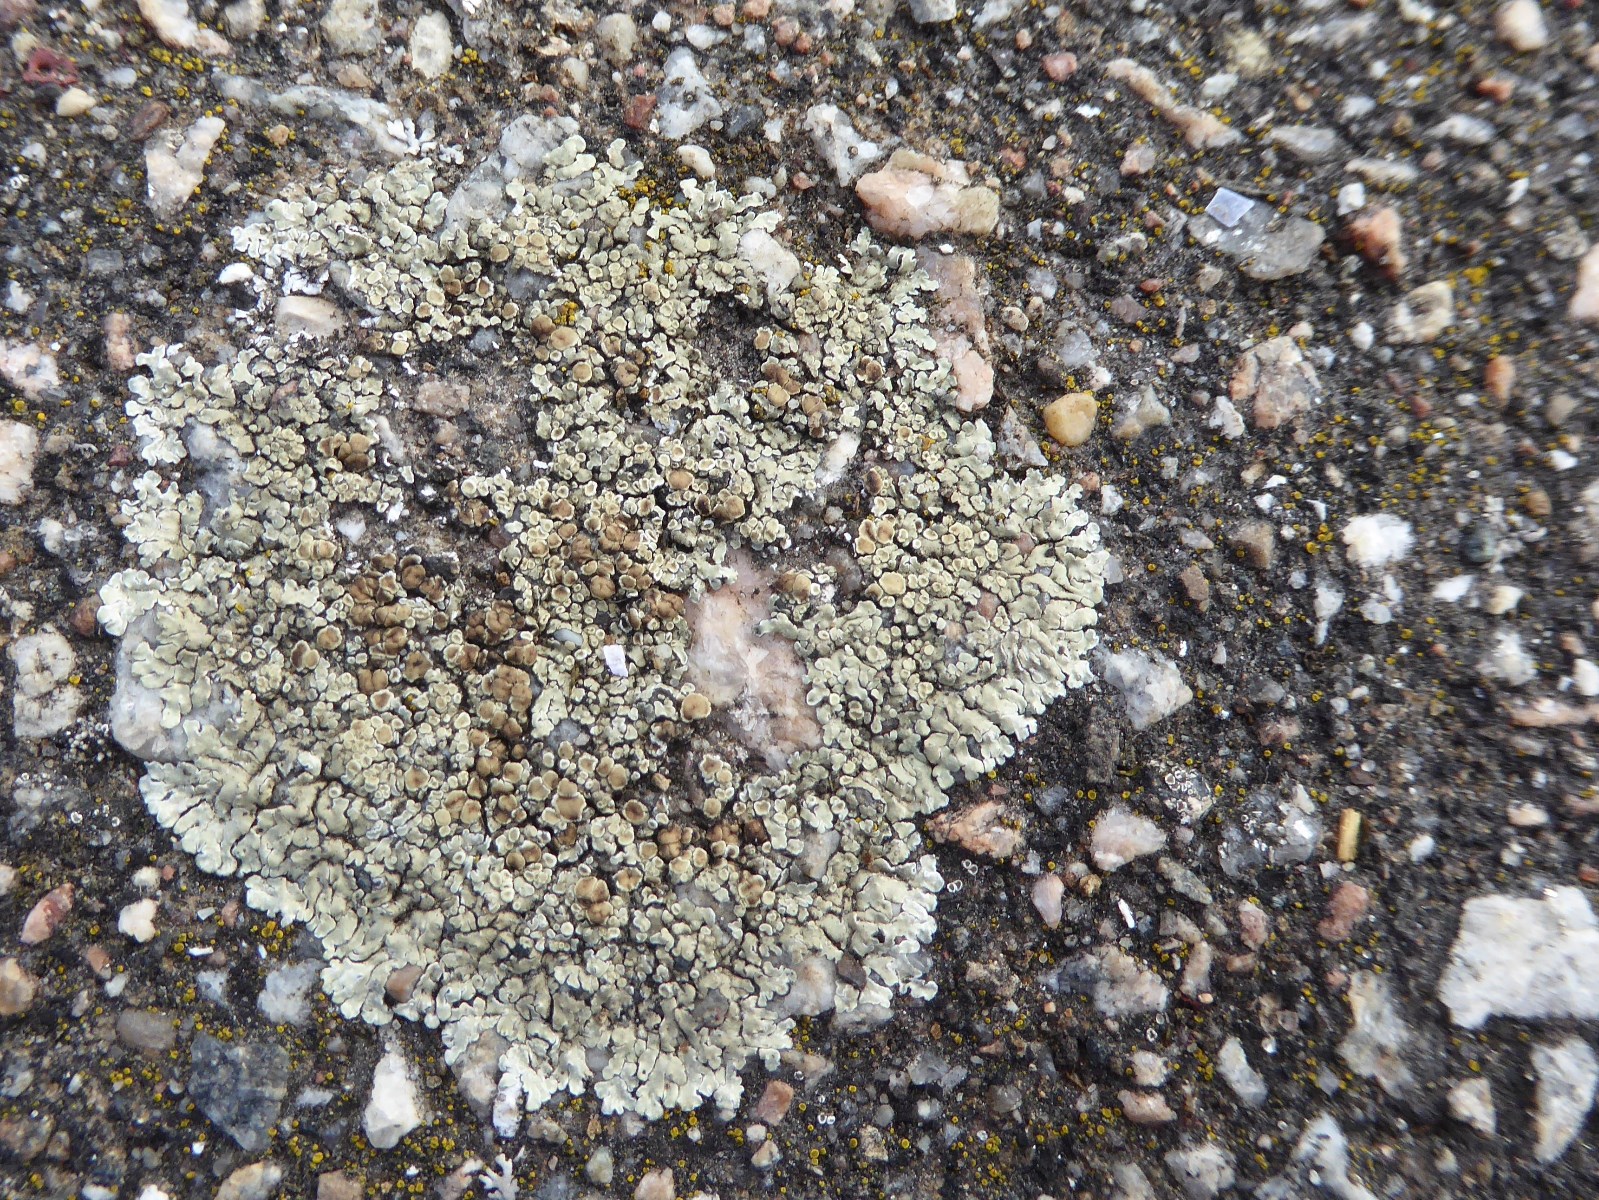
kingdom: Fungi
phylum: Ascomycota
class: Lecanoromycetes
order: Lecanorales
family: Lecanoraceae
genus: Protoparmeliopsis
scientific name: Protoparmeliopsis muralis
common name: randfliget kantskivelav
